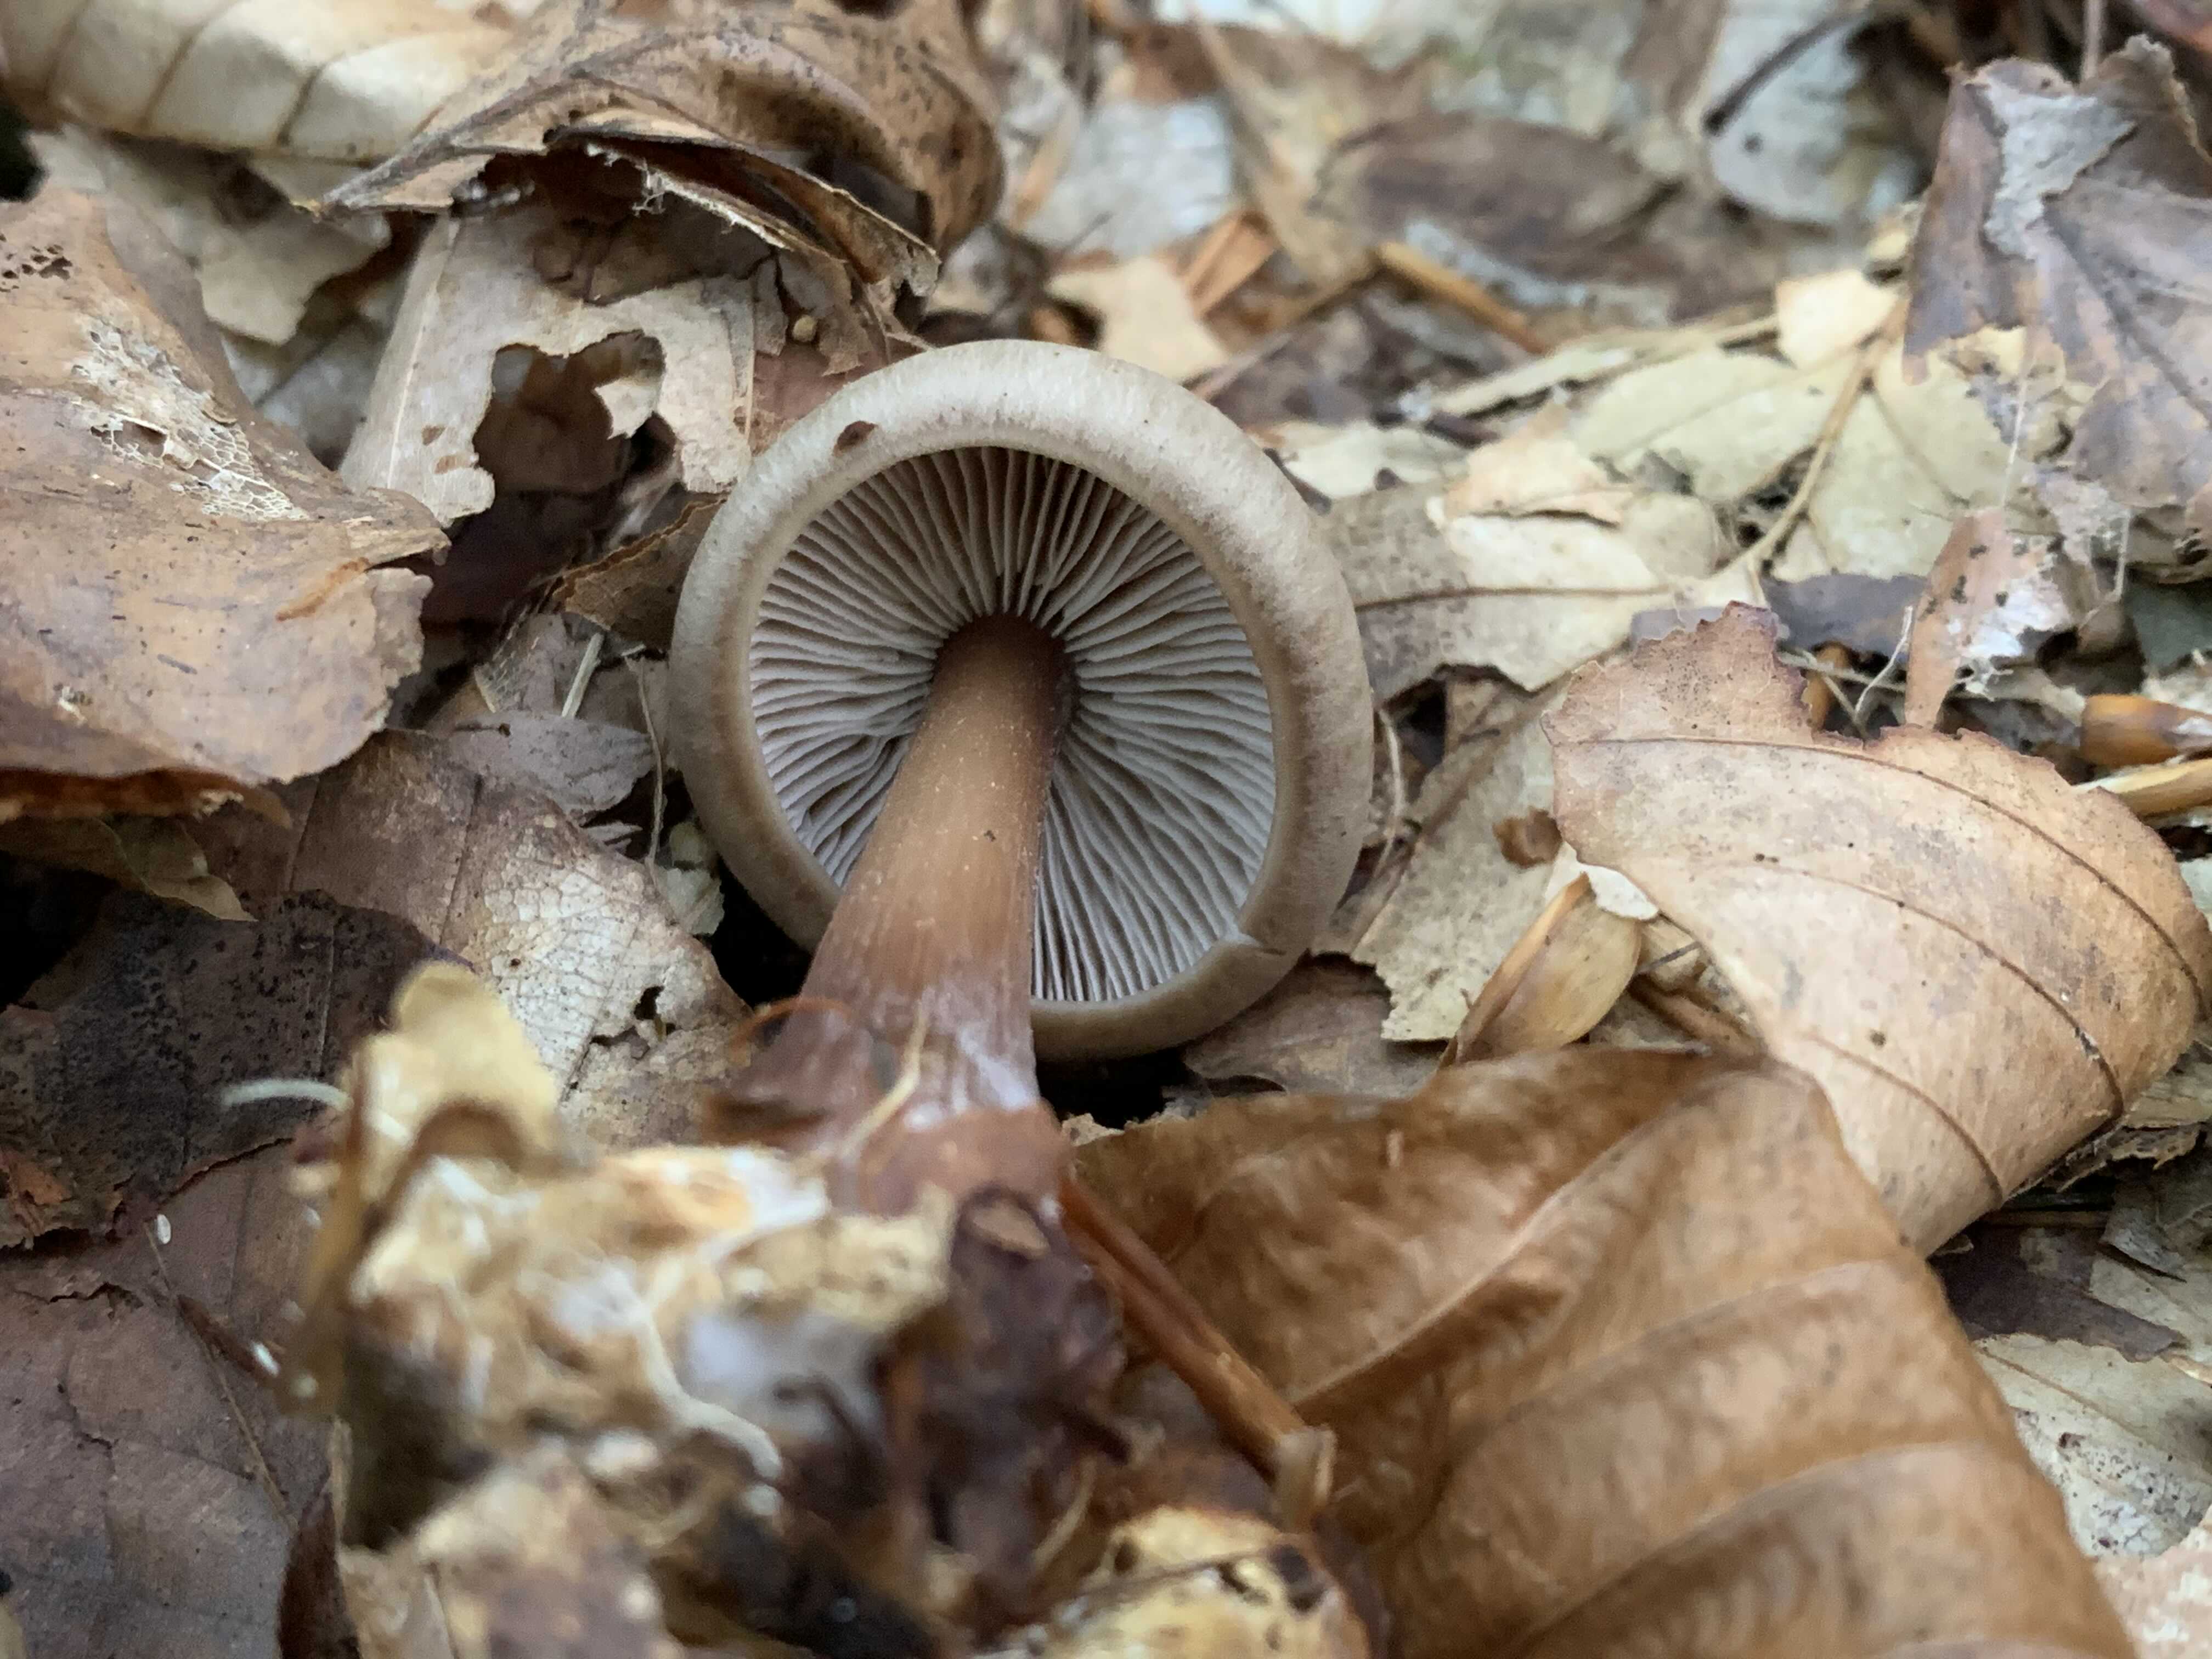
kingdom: Fungi
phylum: Basidiomycota
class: Agaricomycetes
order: Agaricales
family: Omphalotaceae
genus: Rhodocollybia
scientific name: Rhodocollybia asema
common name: horngrå fladhat
